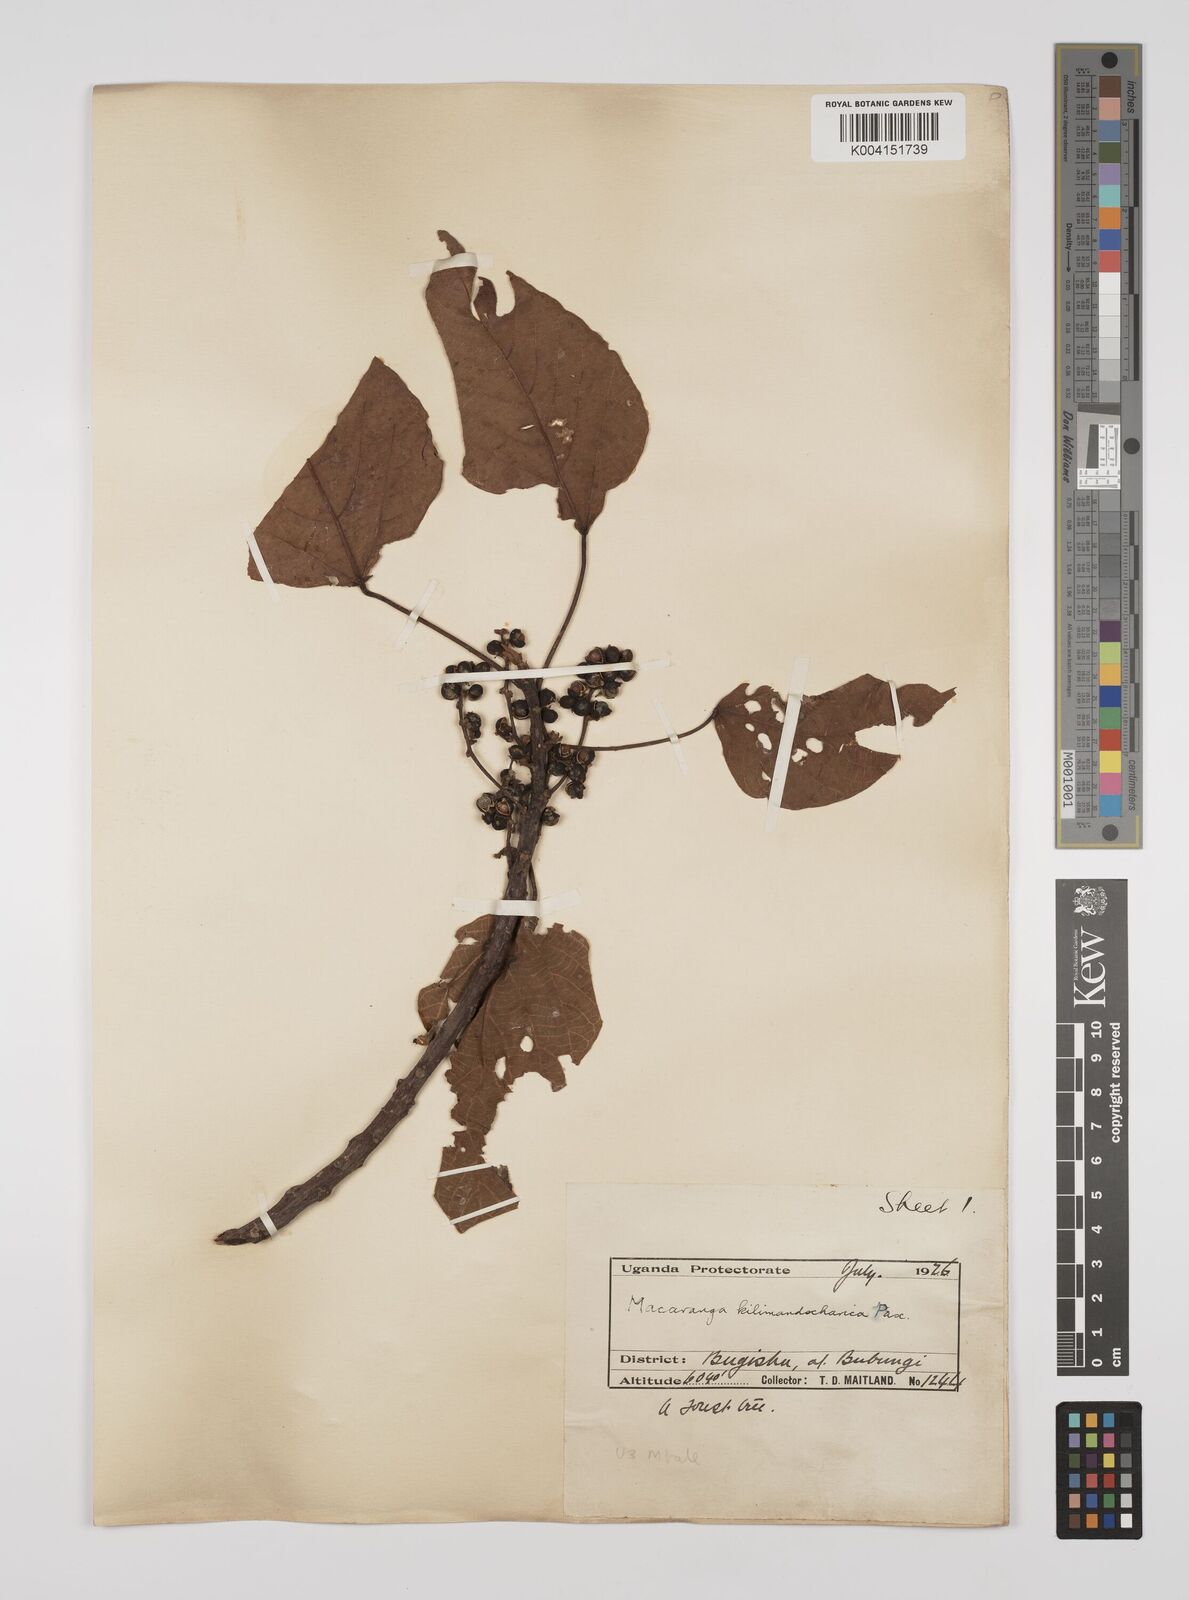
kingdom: Plantae
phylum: Tracheophyta
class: Magnoliopsida
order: Malpighiales
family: Euphorbiaceae
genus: Macaranga
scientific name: Macaranga kilimandscharica
